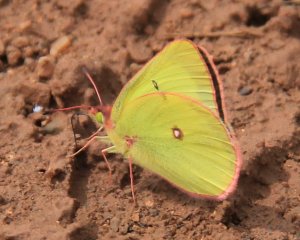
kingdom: Animalia
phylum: Arthropoda
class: Insecta
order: Lepidoptera
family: Pieridae
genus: Colias
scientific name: Colias interior
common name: Pink-edged Sulphur
